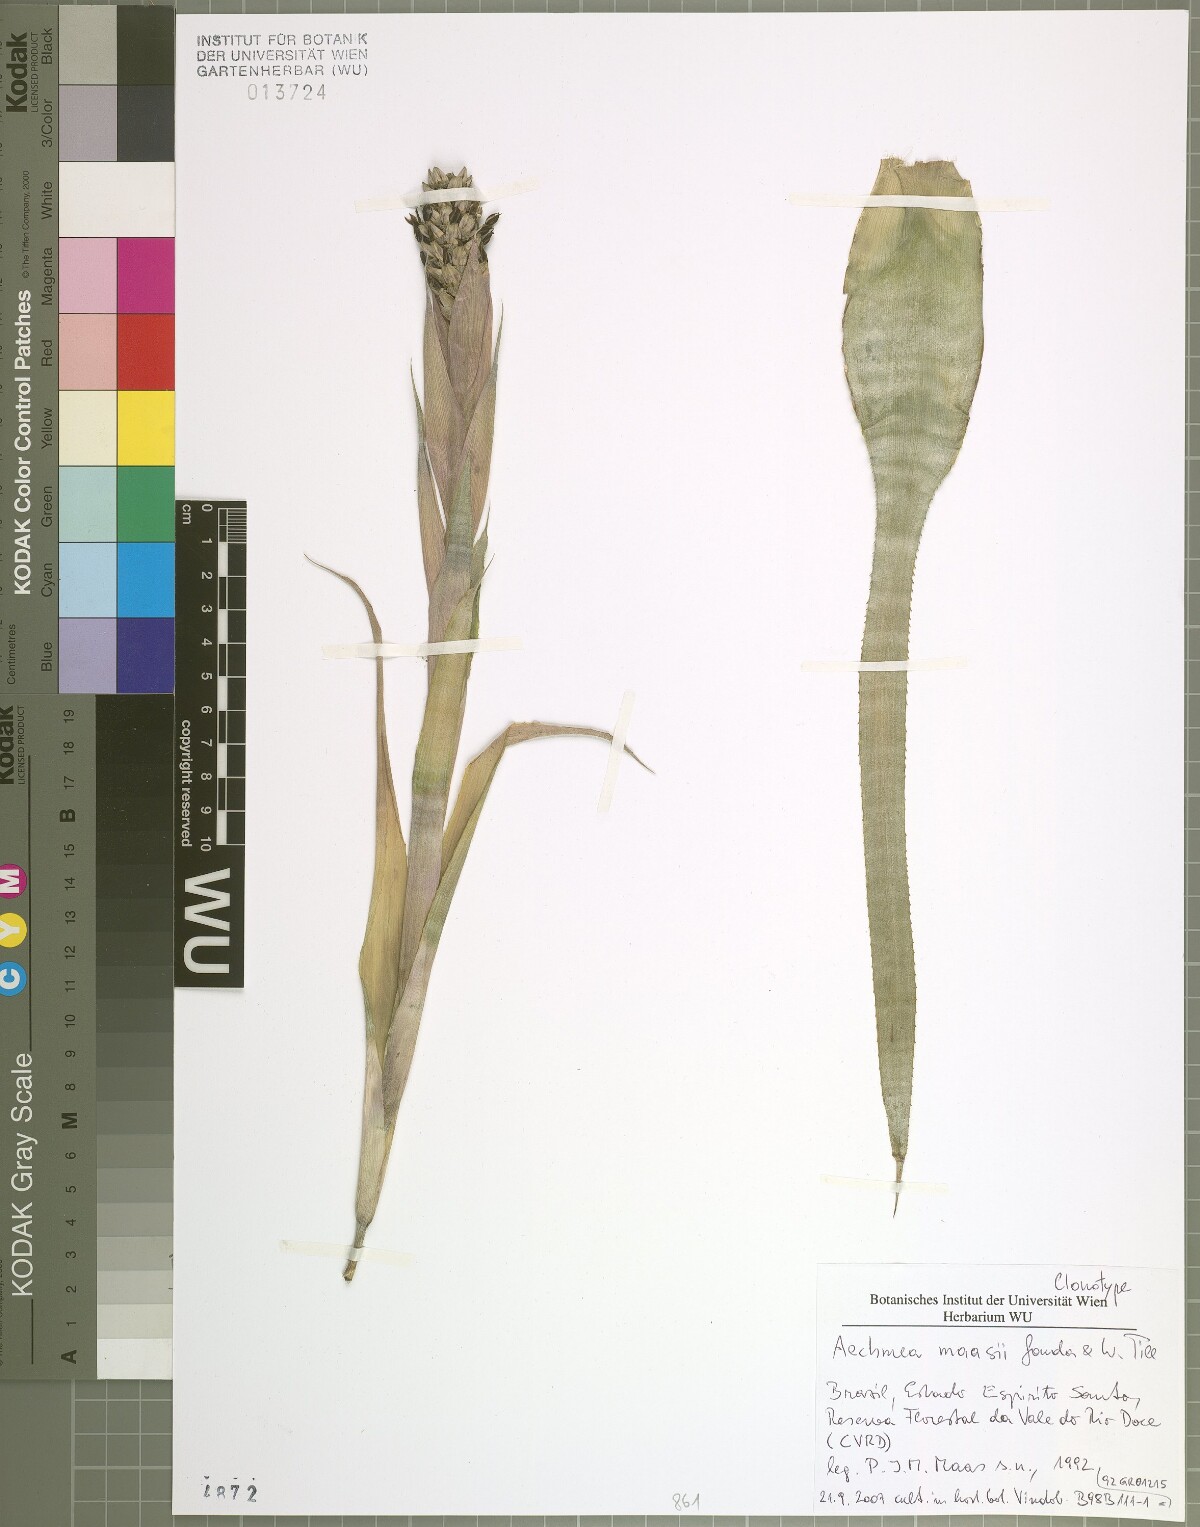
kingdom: Plantae
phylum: Tracheophyta
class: Liliopsida
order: Poales
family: Bromeliaceae
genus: Aechmea
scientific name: Aechmea maasii
